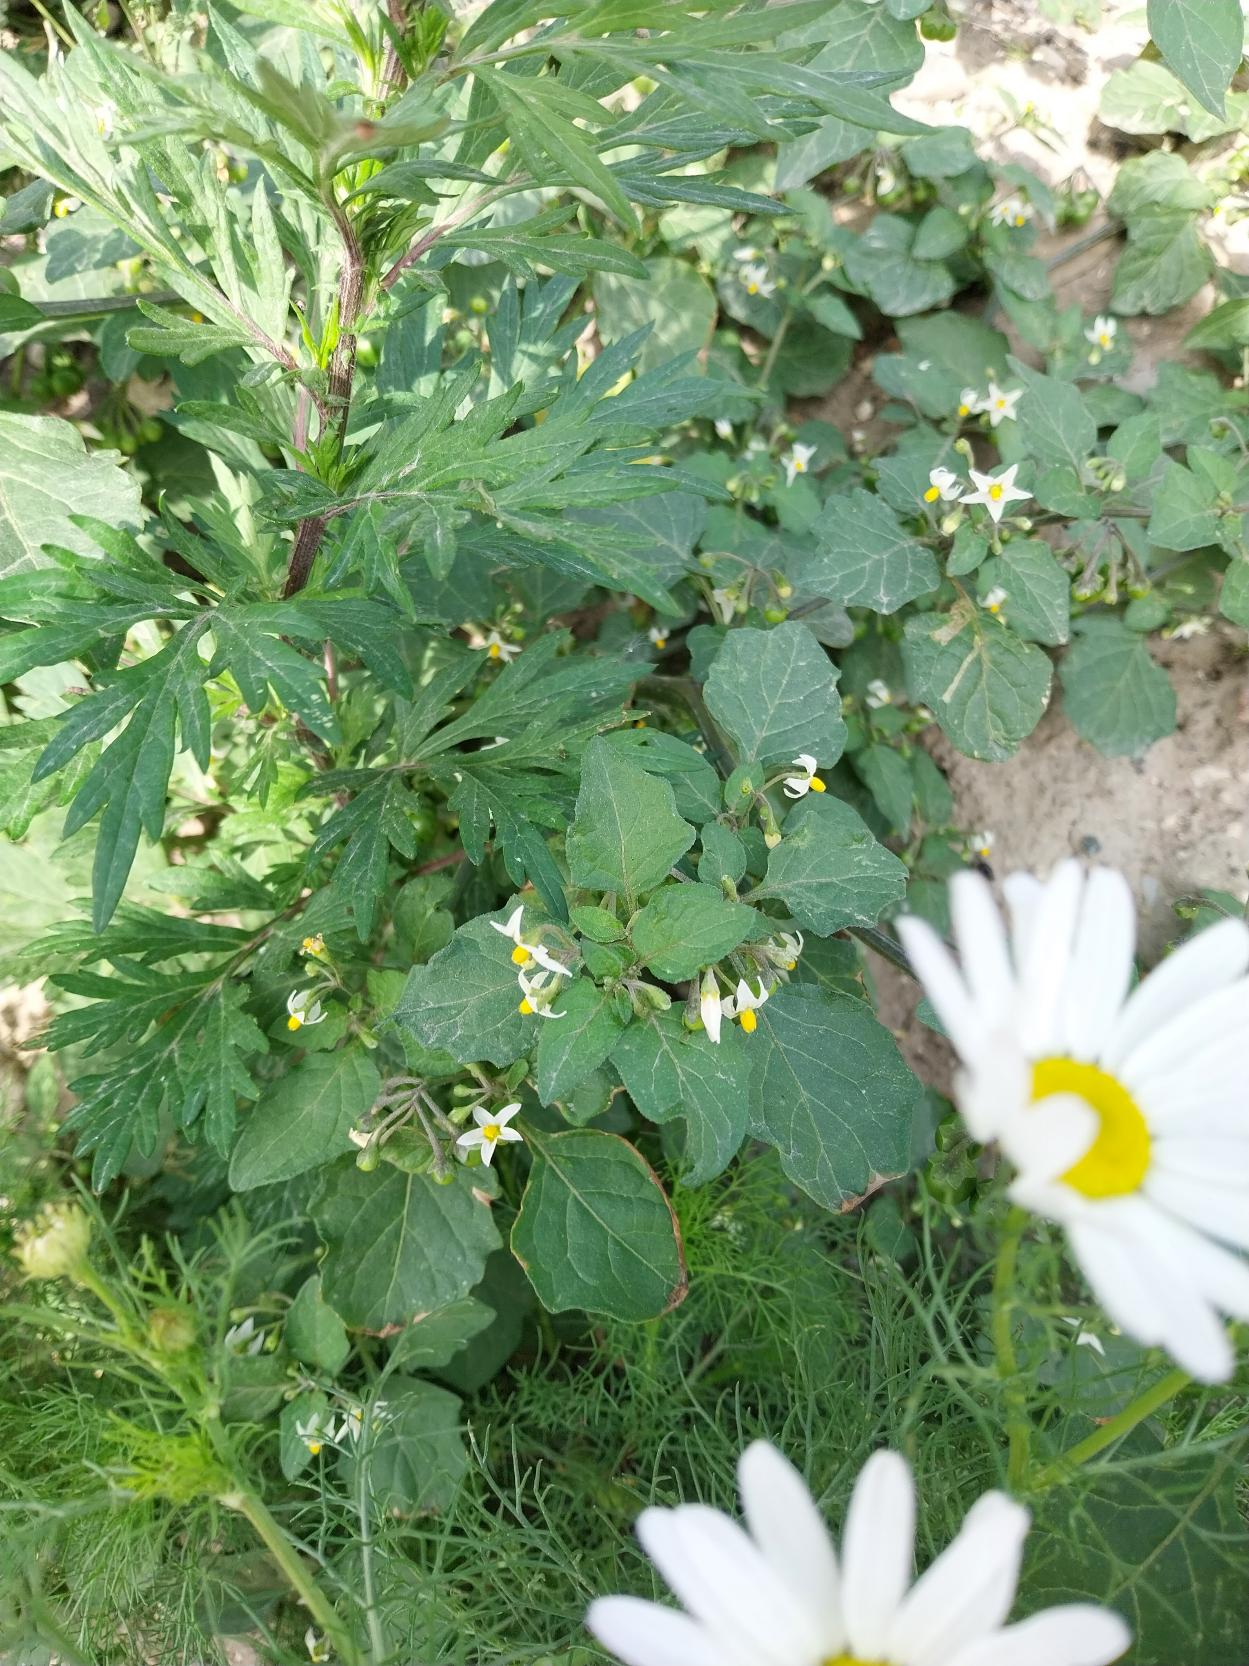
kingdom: Plantae
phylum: Tracheophyta
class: Magnoliopsida
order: Solanales
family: Solanaceae
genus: Solanum
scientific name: Solanum nigrum
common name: Sort natskygge (underart)
